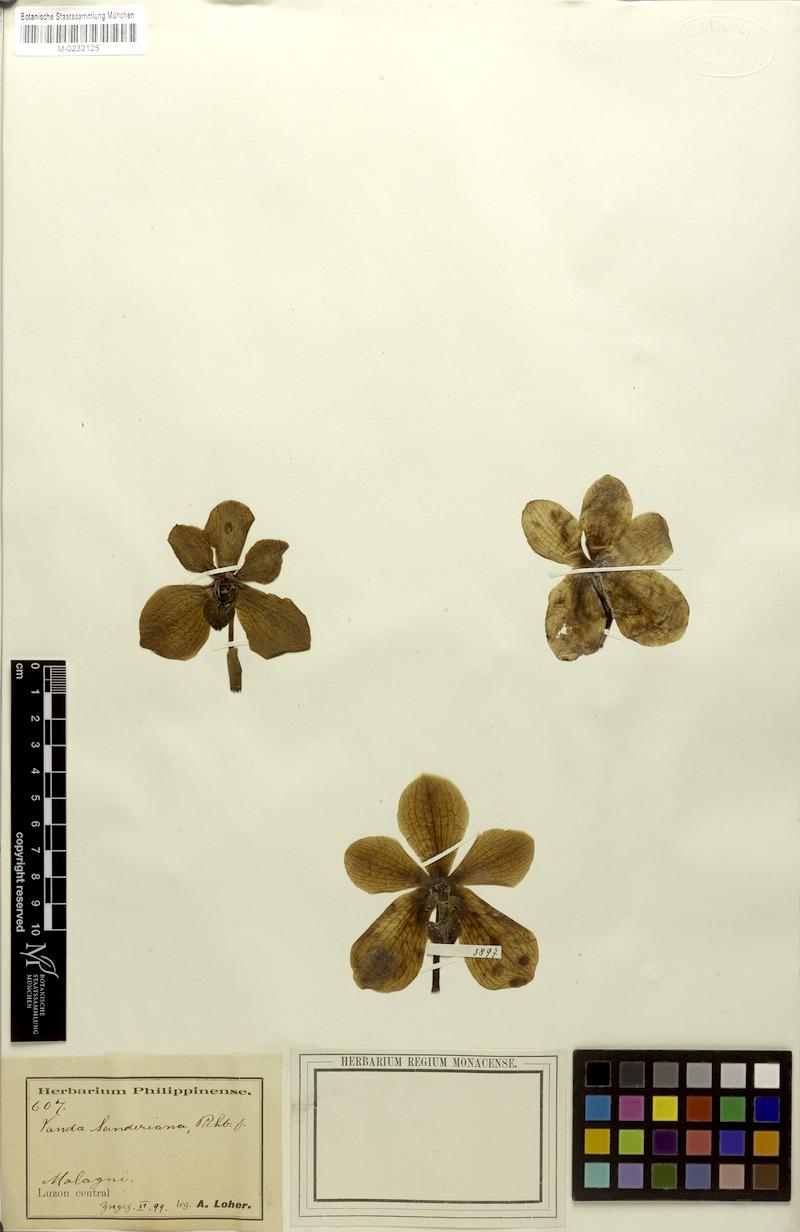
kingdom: Plantae
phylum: Tracheophyta
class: Liliopsida
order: Asparagales
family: Orchidaceae
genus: Vanda
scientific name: Vanda sanderiana
